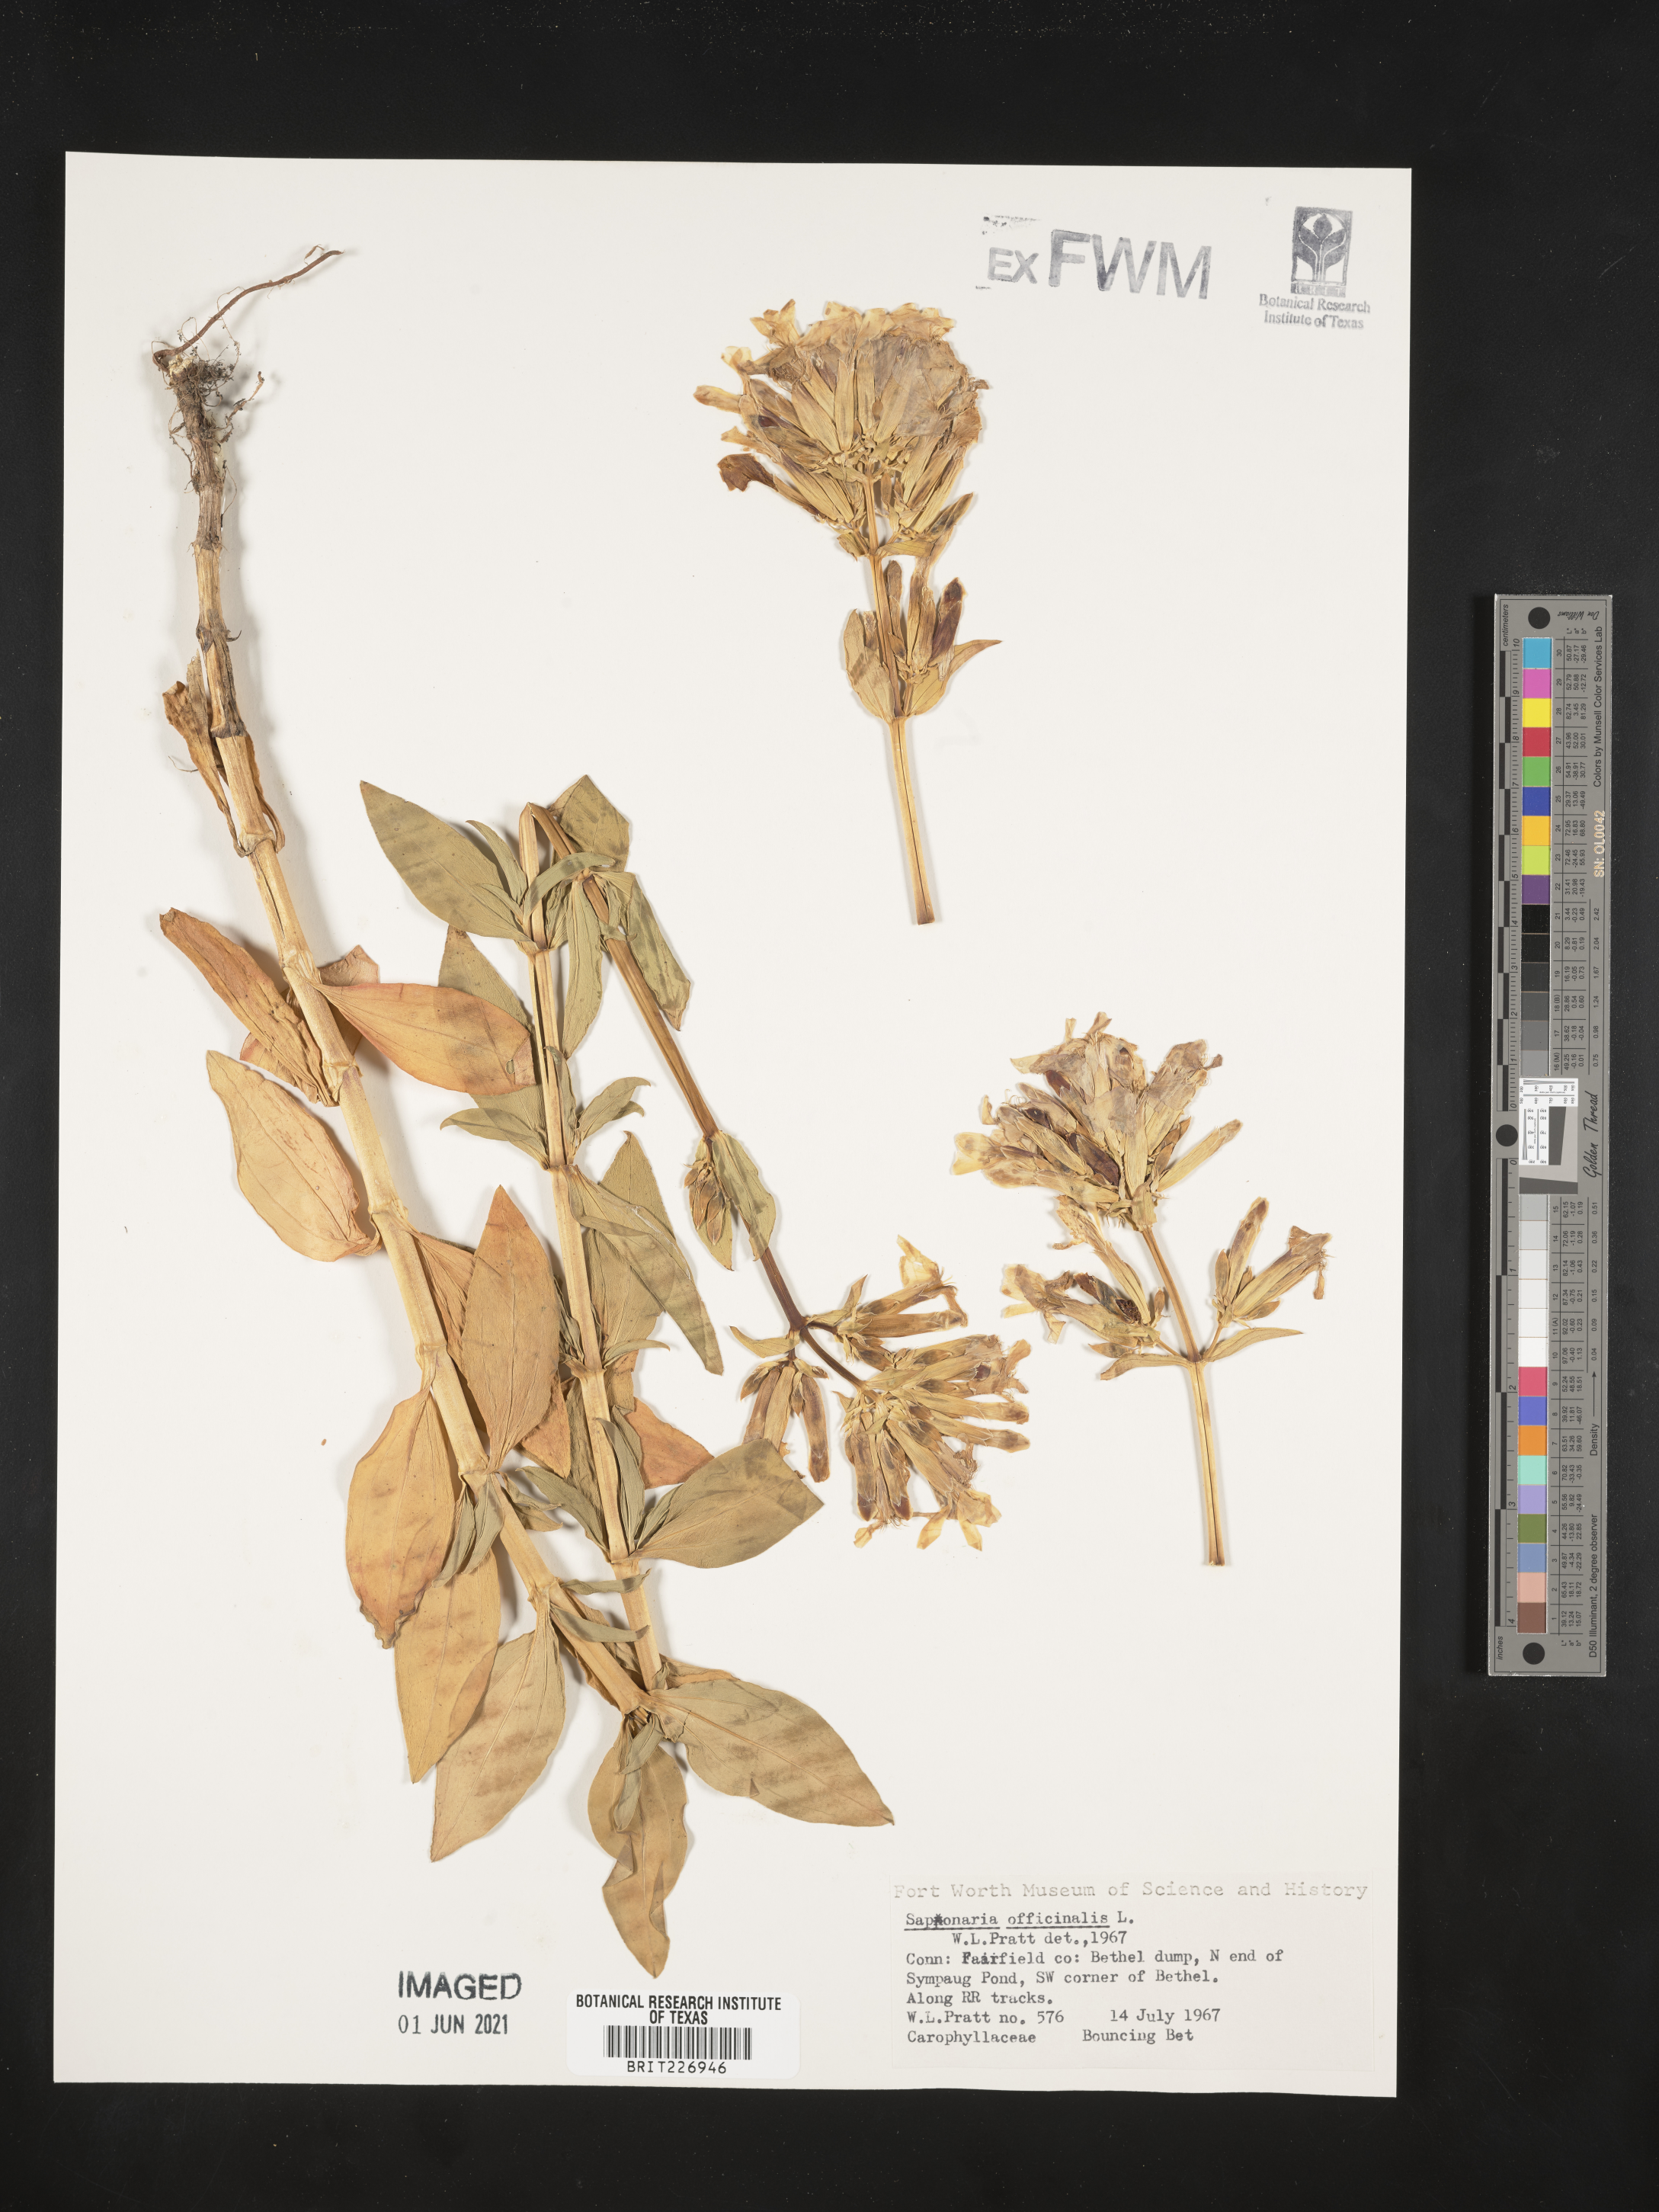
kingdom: Plantae
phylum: Tracheophyta
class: Magnoliopsida
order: Caryophyllales
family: Caryophyllaceae
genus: Saponaria
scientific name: Saponaria officinalis
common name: Soapwort
